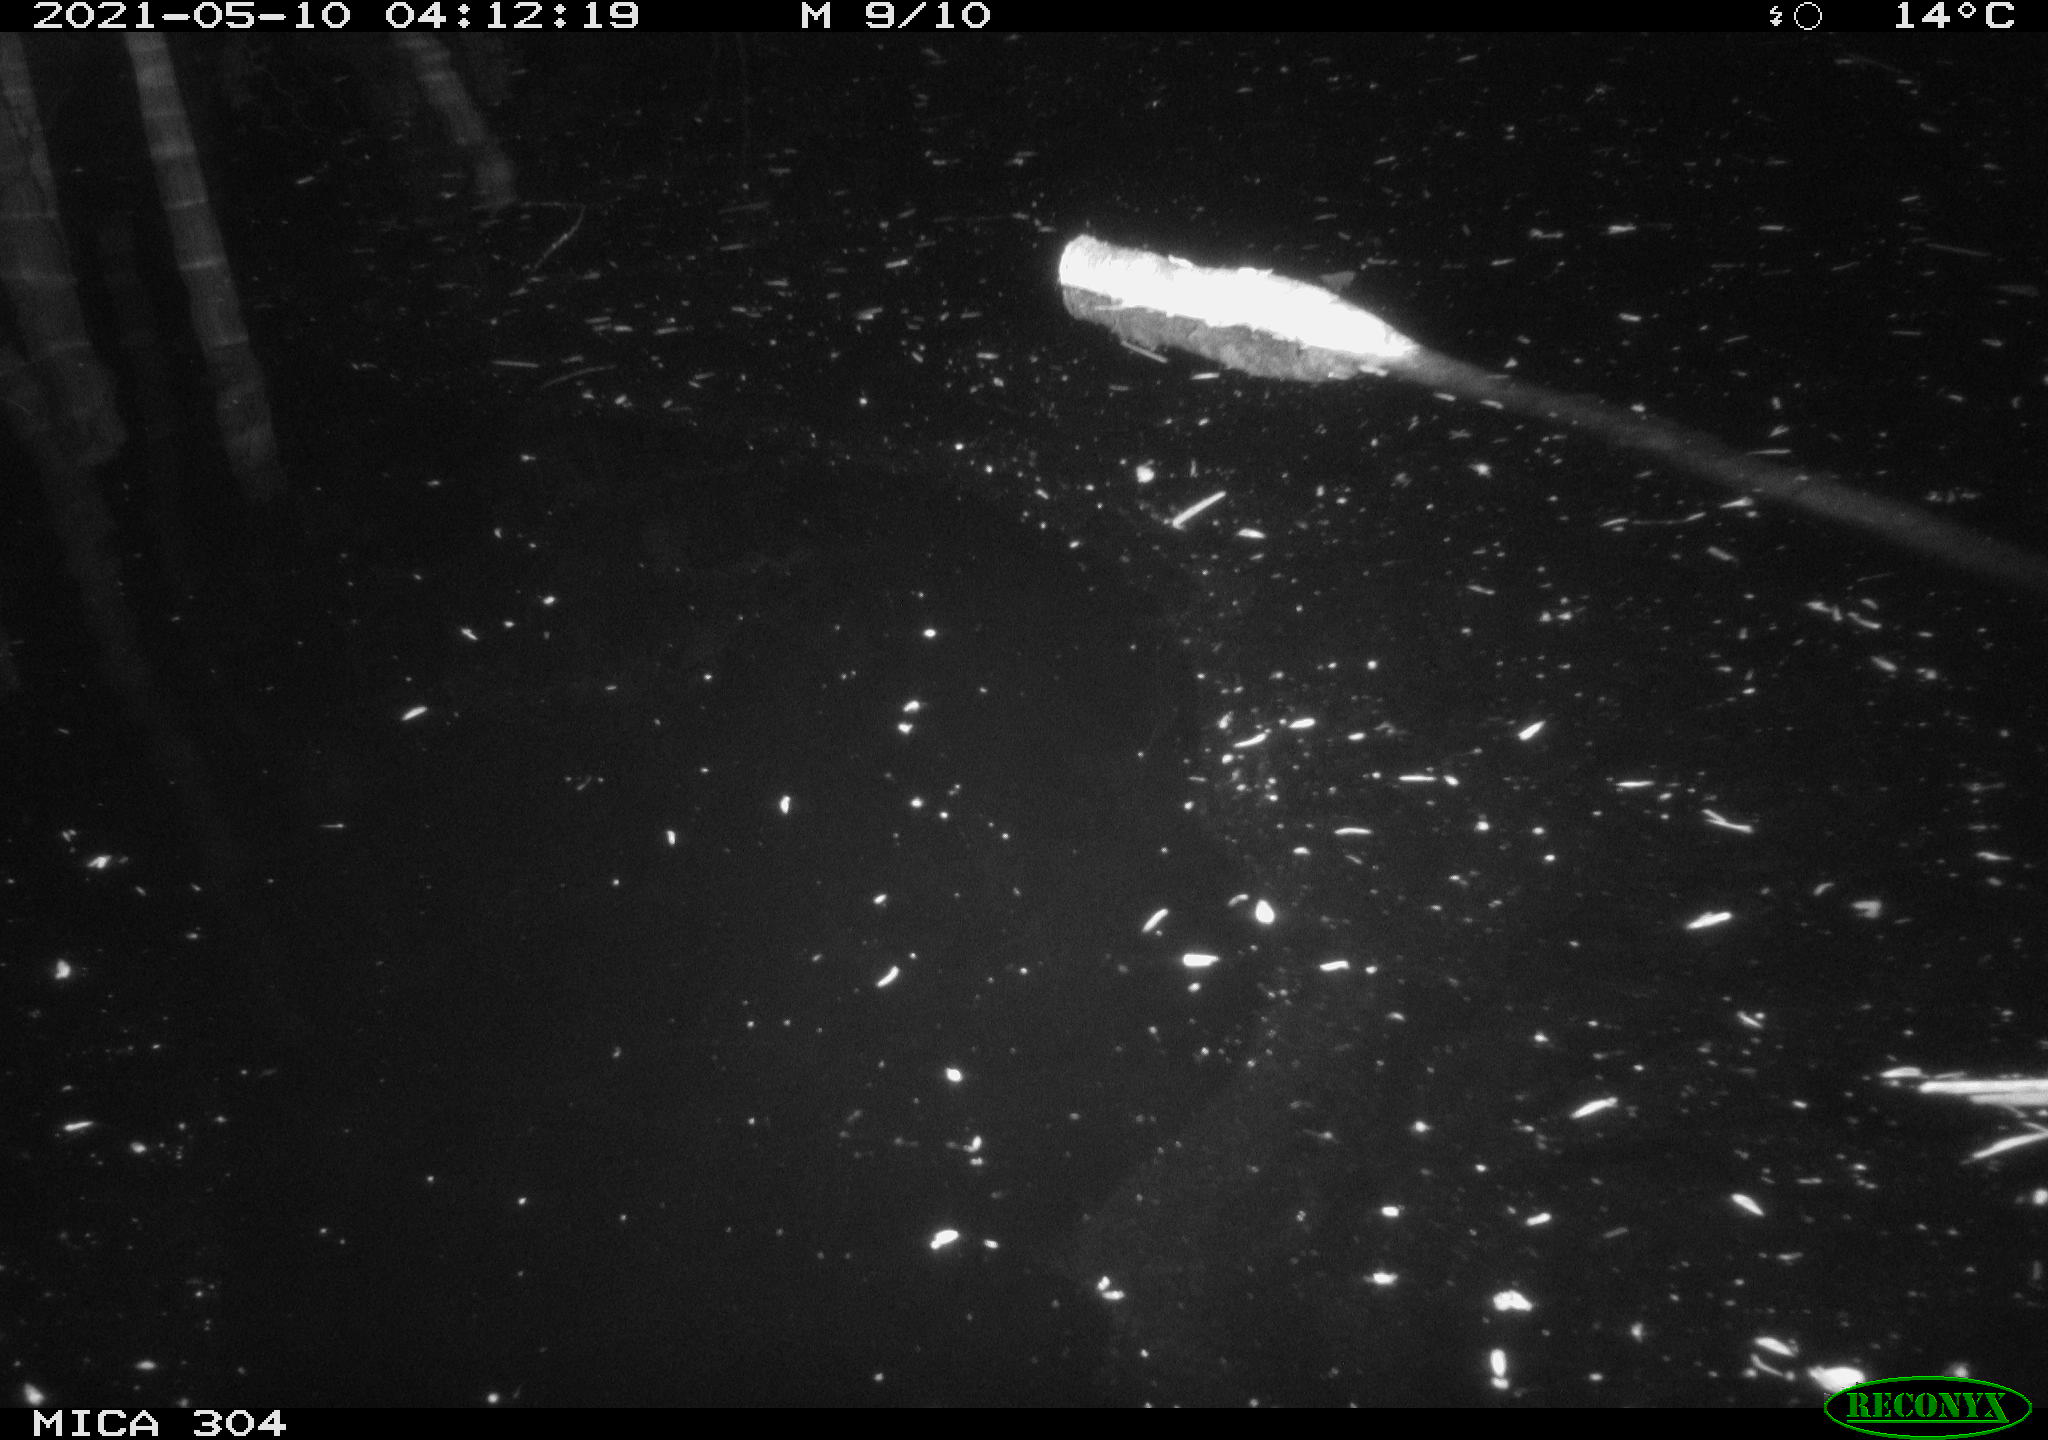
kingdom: Animalia
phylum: Chordata
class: Aves
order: Anseriformes
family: Anatidae
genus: Anas
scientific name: Anas platyrhynchos
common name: Mallard
